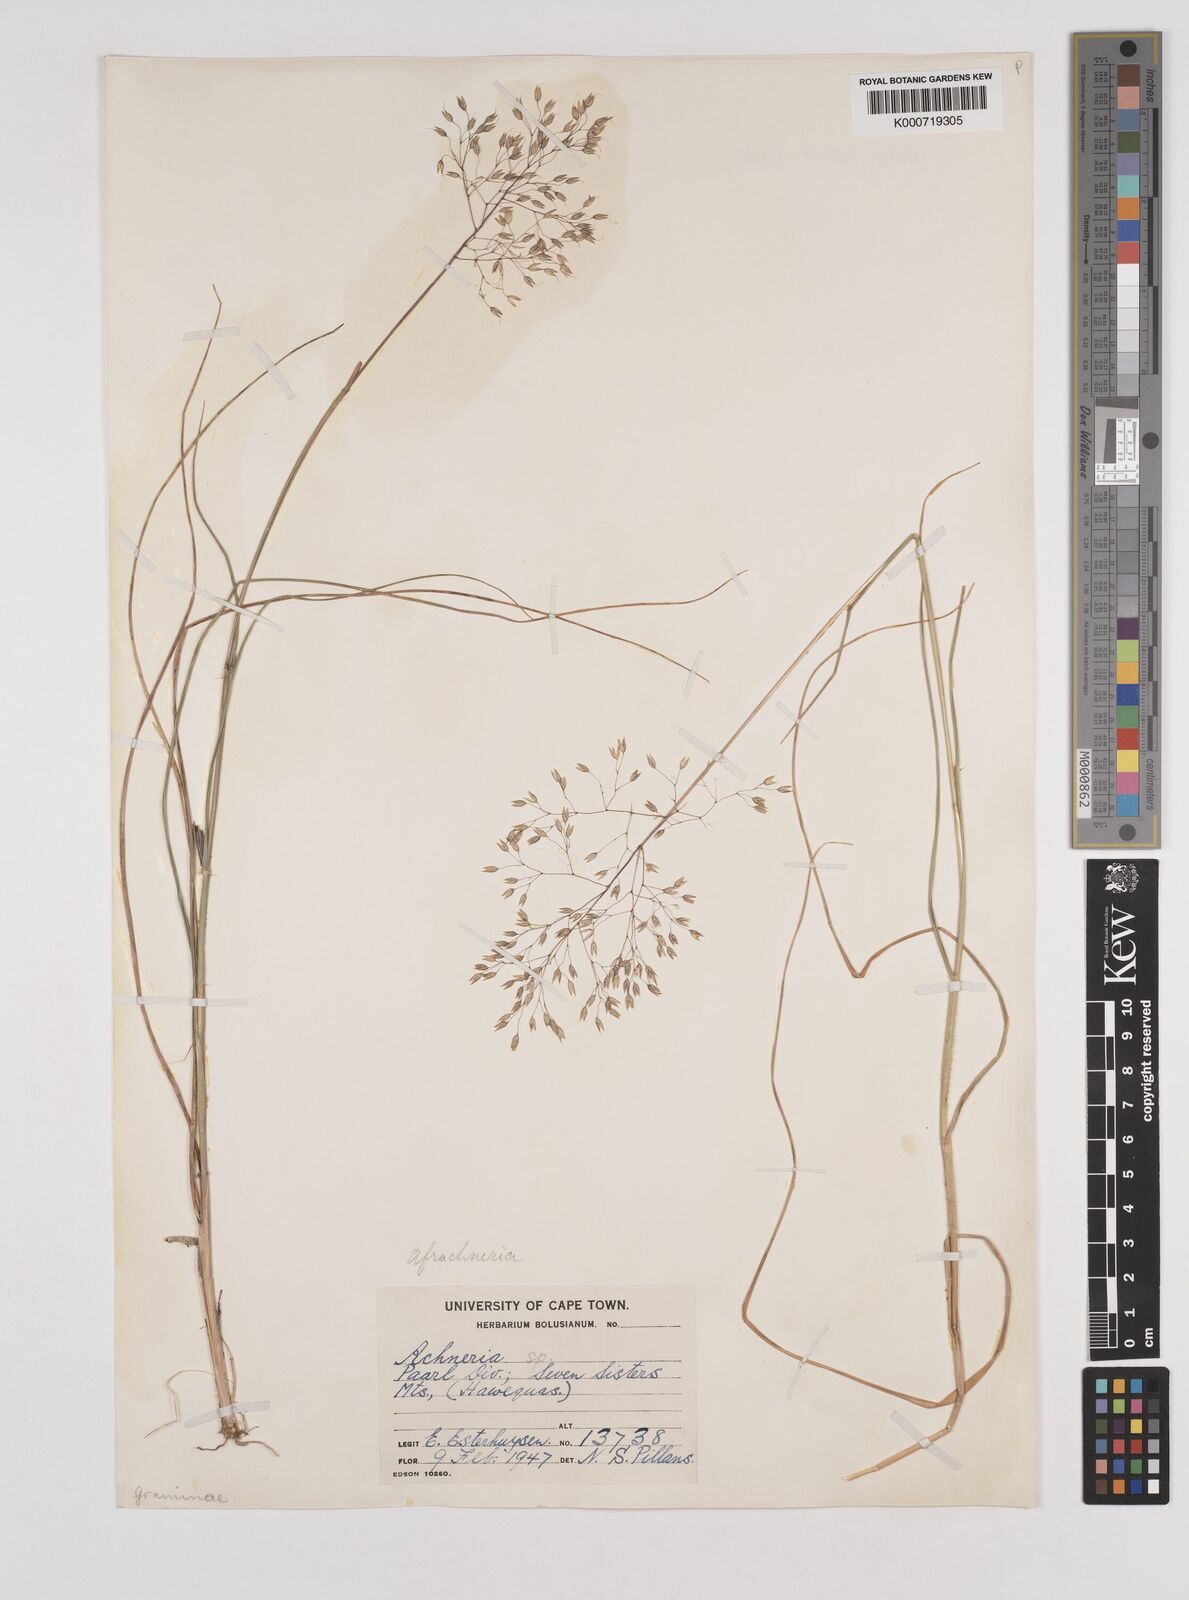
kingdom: Plantae
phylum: Tracheophyta
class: Liliopsida
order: Poales
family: Poaceae
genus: Pentameris
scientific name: Pentameris ampla
